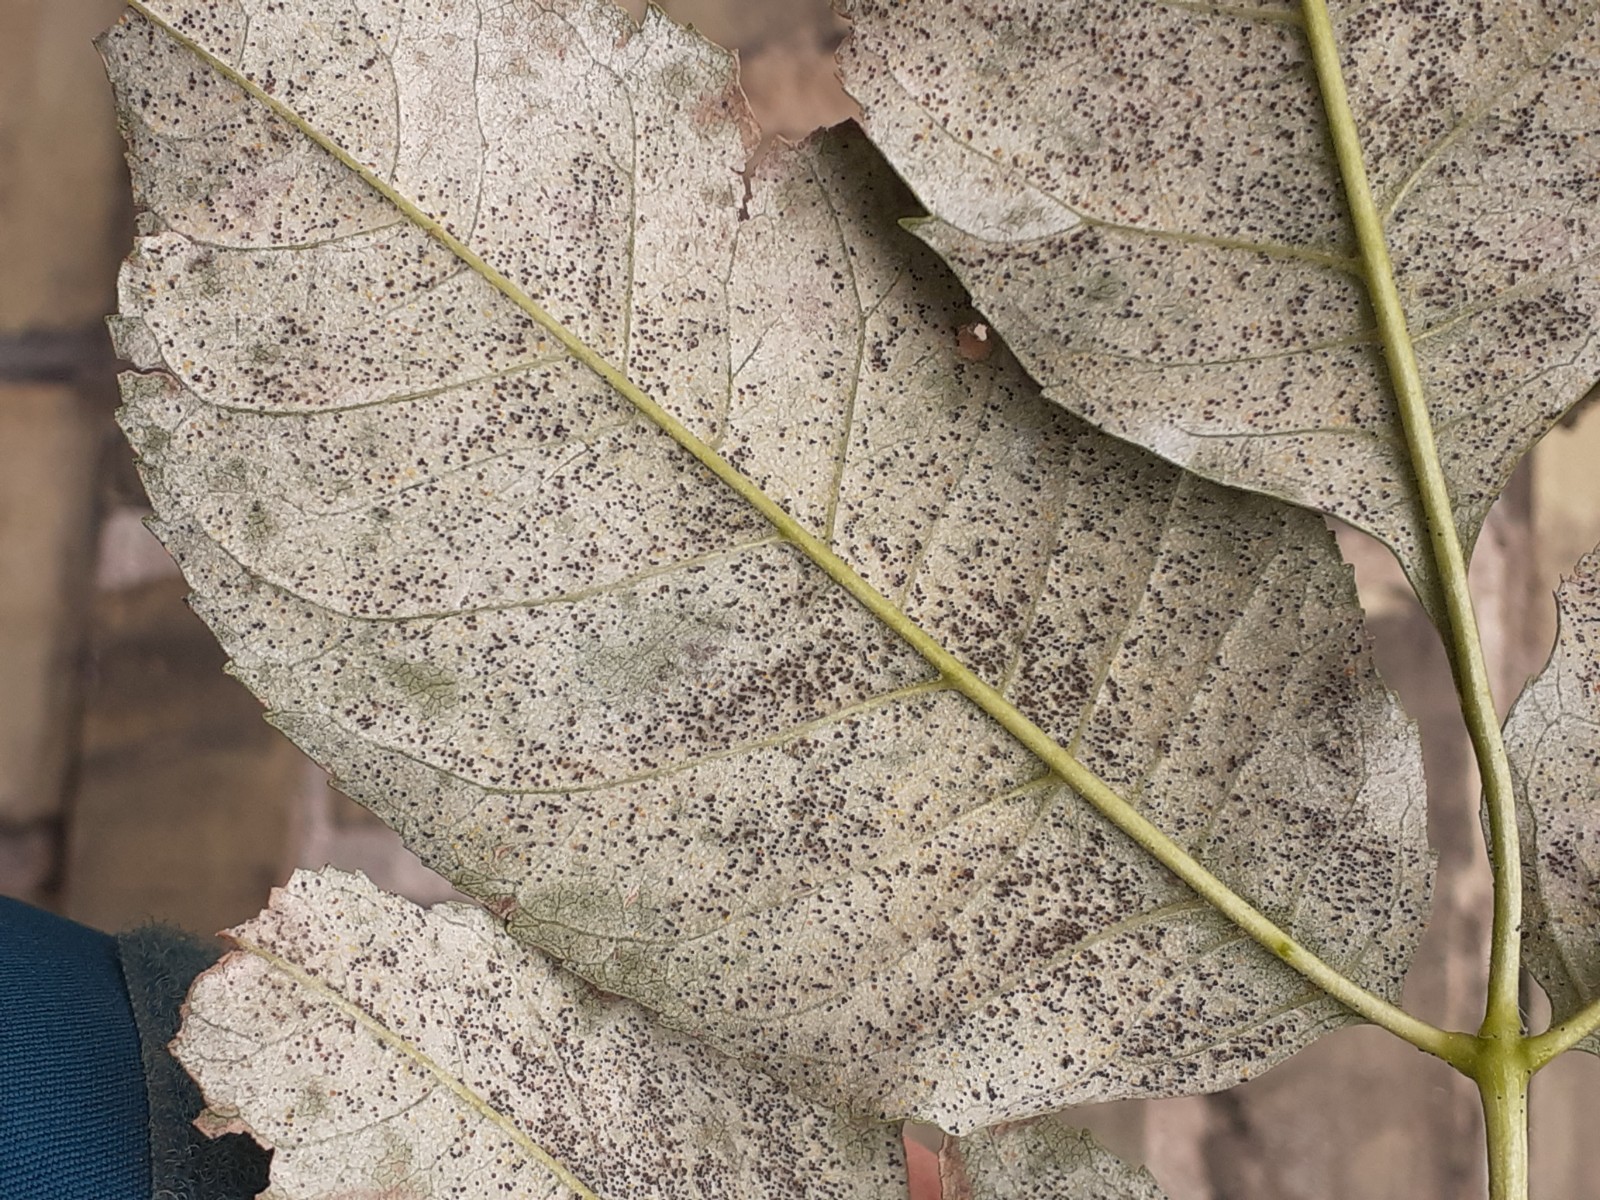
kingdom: Fungi
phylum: Ascomycota
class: Leotiomycetes
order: Helotiales
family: Erysiphaceae
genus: Phyllactinia
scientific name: Phyllactinia fraxini
